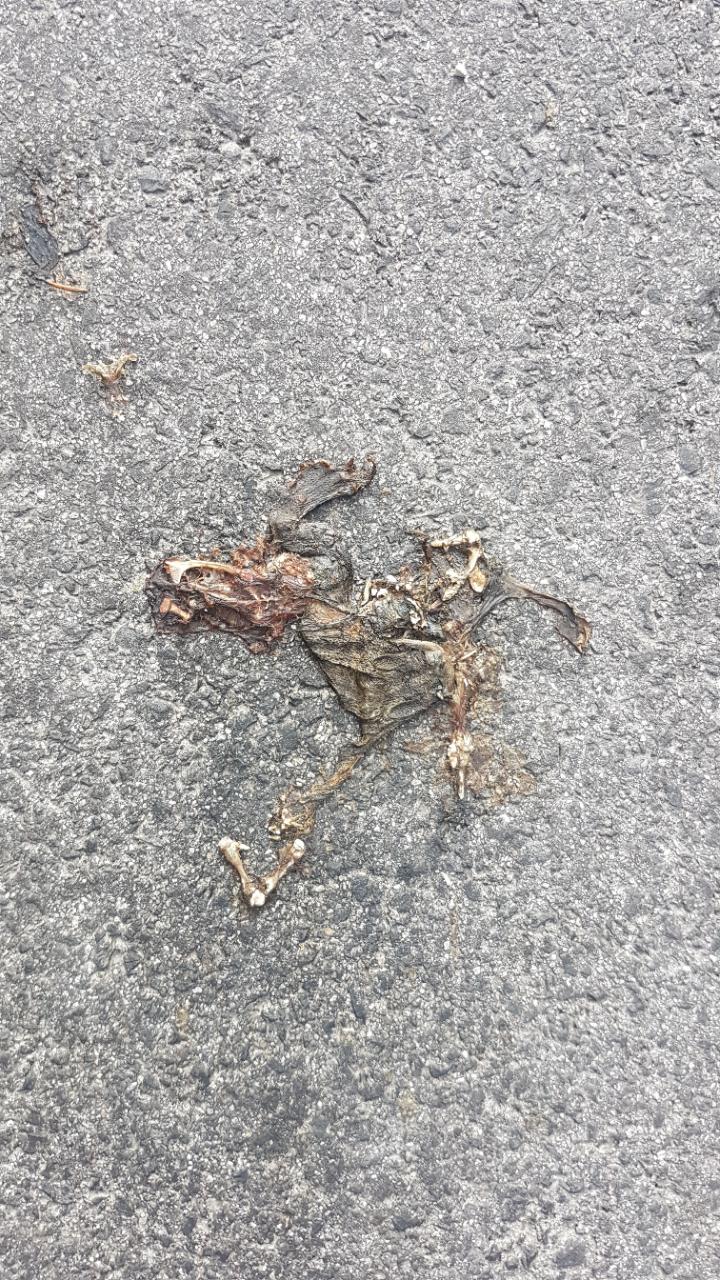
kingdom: Animalia
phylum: Chordata
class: Amphibia
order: Anura
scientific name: Anura
